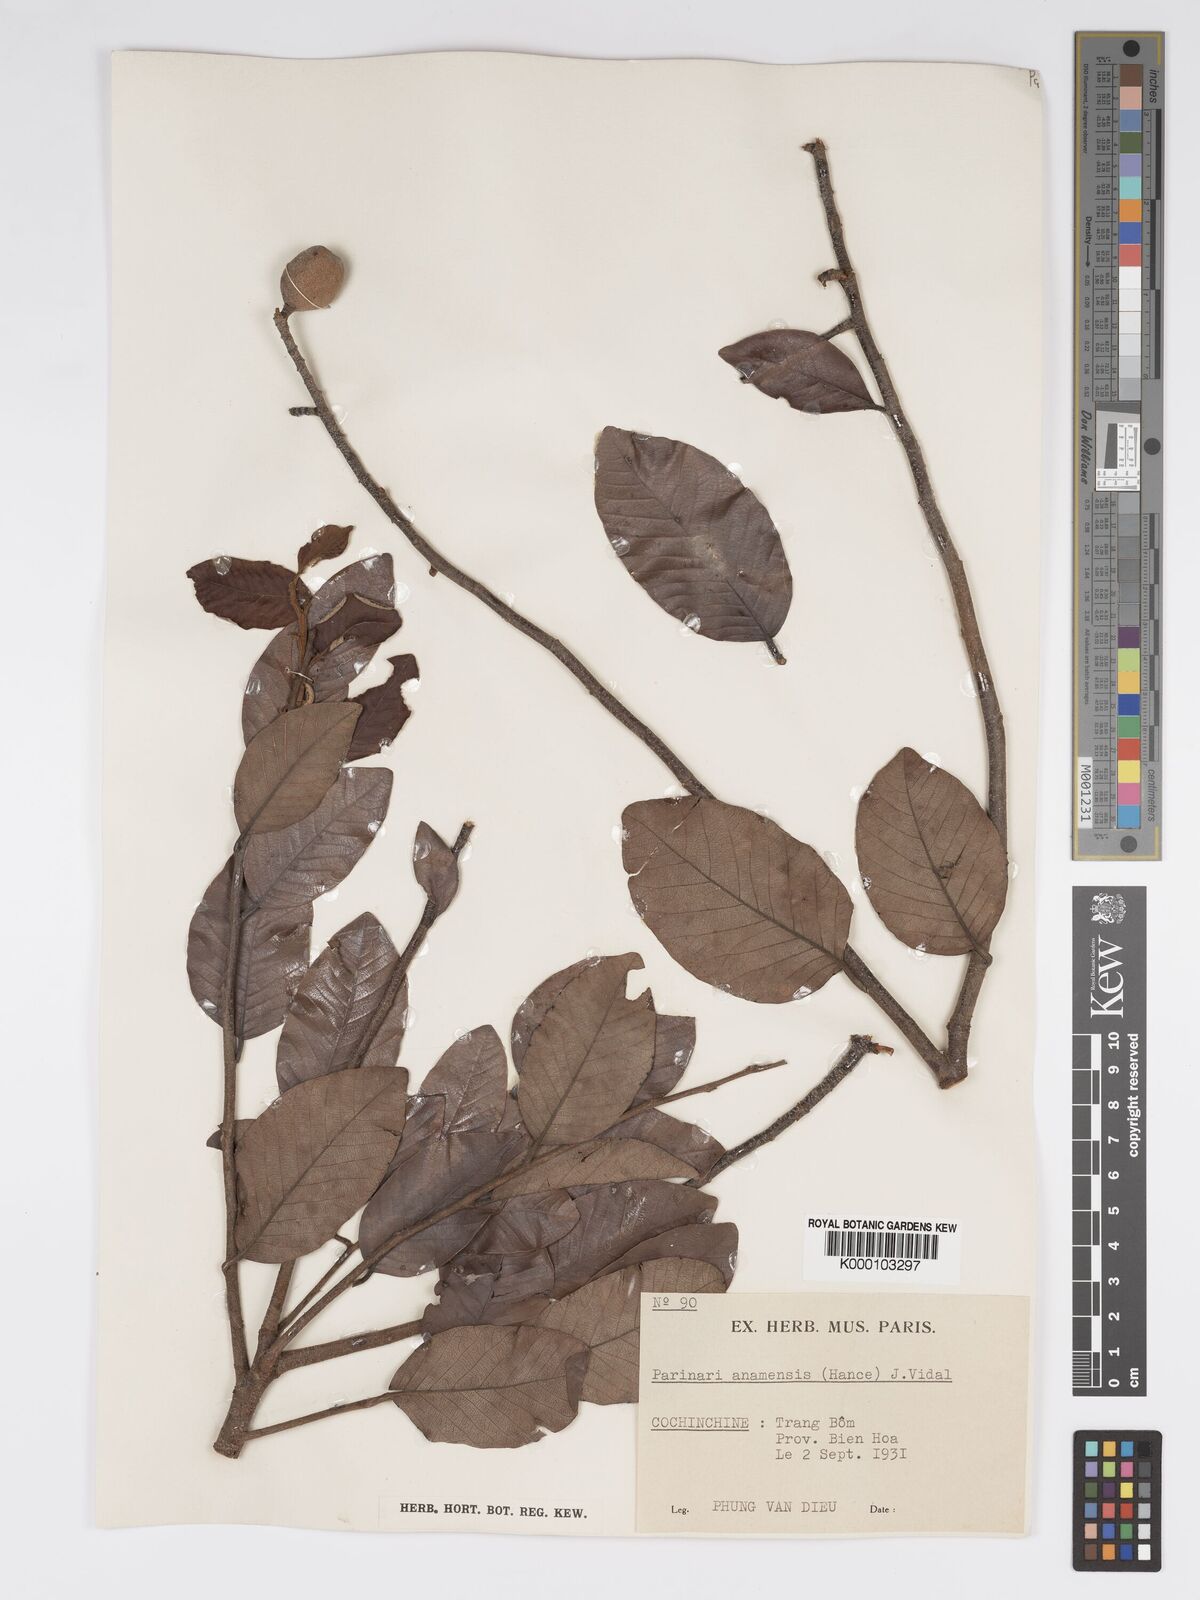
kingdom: Plantae
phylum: Tracheophyta
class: Magnoliopsida
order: Malpighiales
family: Chrysobalanaceae
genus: Parinari
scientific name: Parinari anamensis
